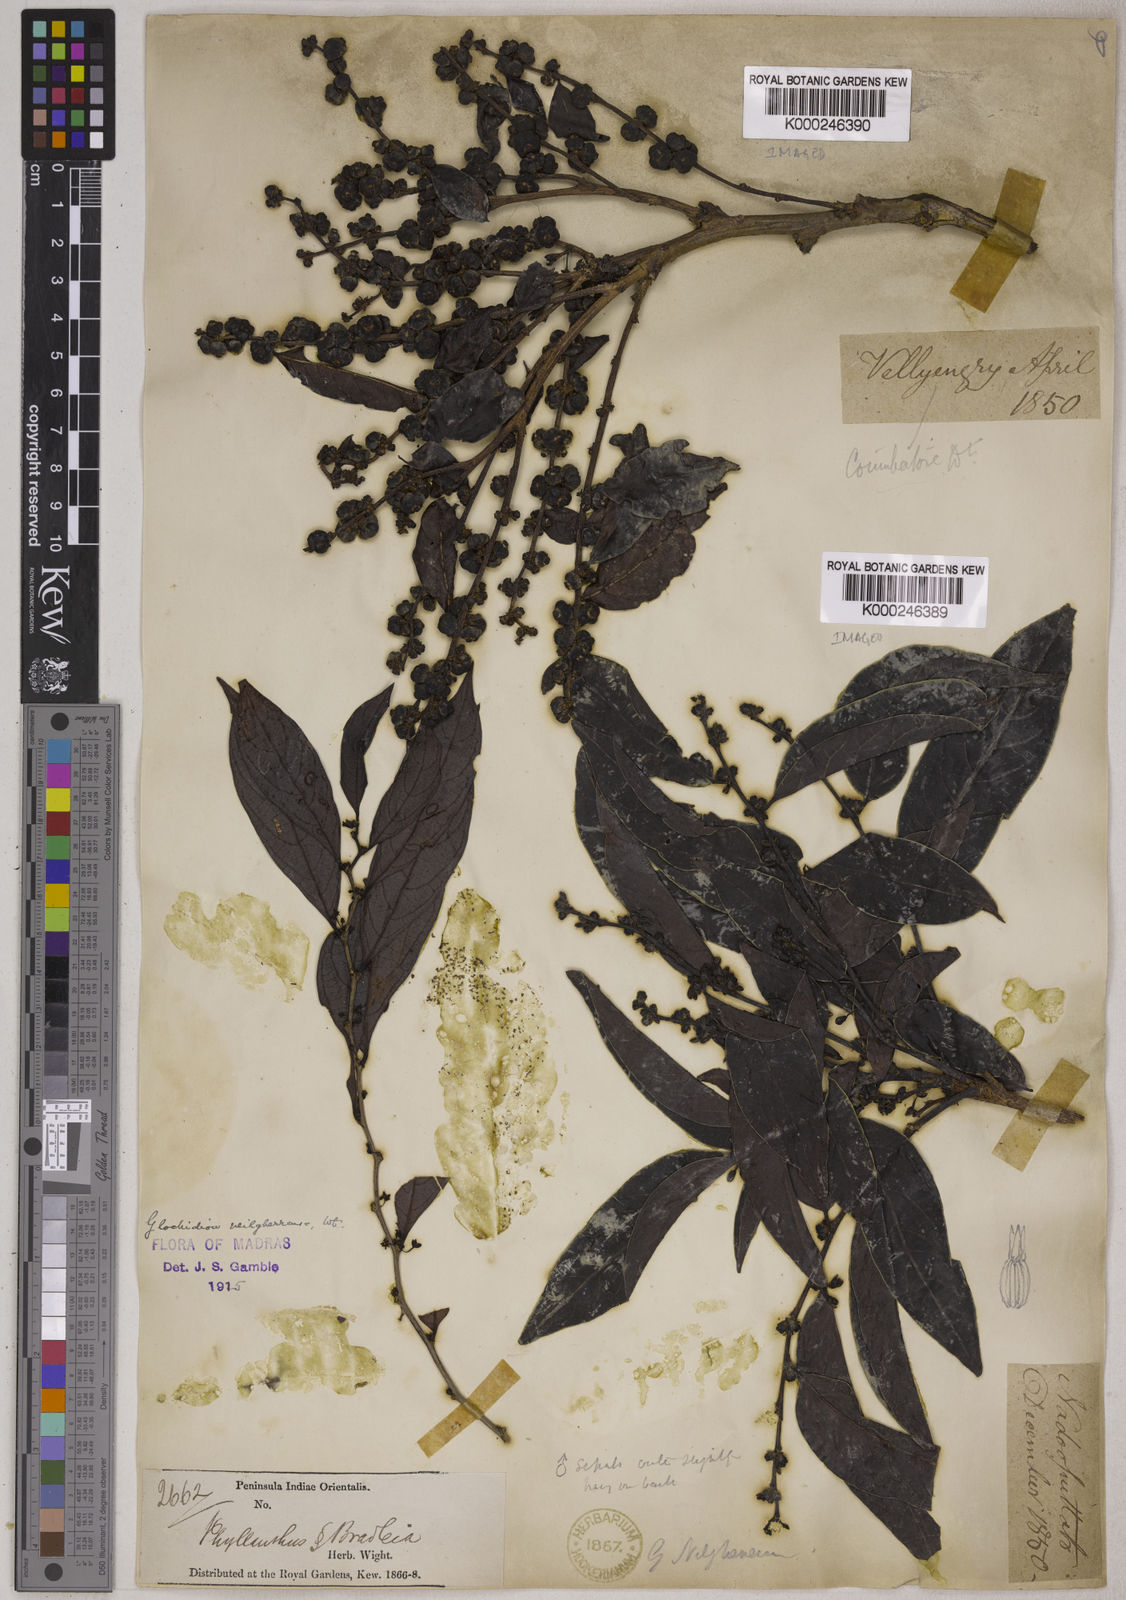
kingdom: Plantae
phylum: Tracheophyta
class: Magnoliopsida
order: Malpighiales
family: Phyllanthaceae
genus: Glochidion
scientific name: Glochidion candolleanum
